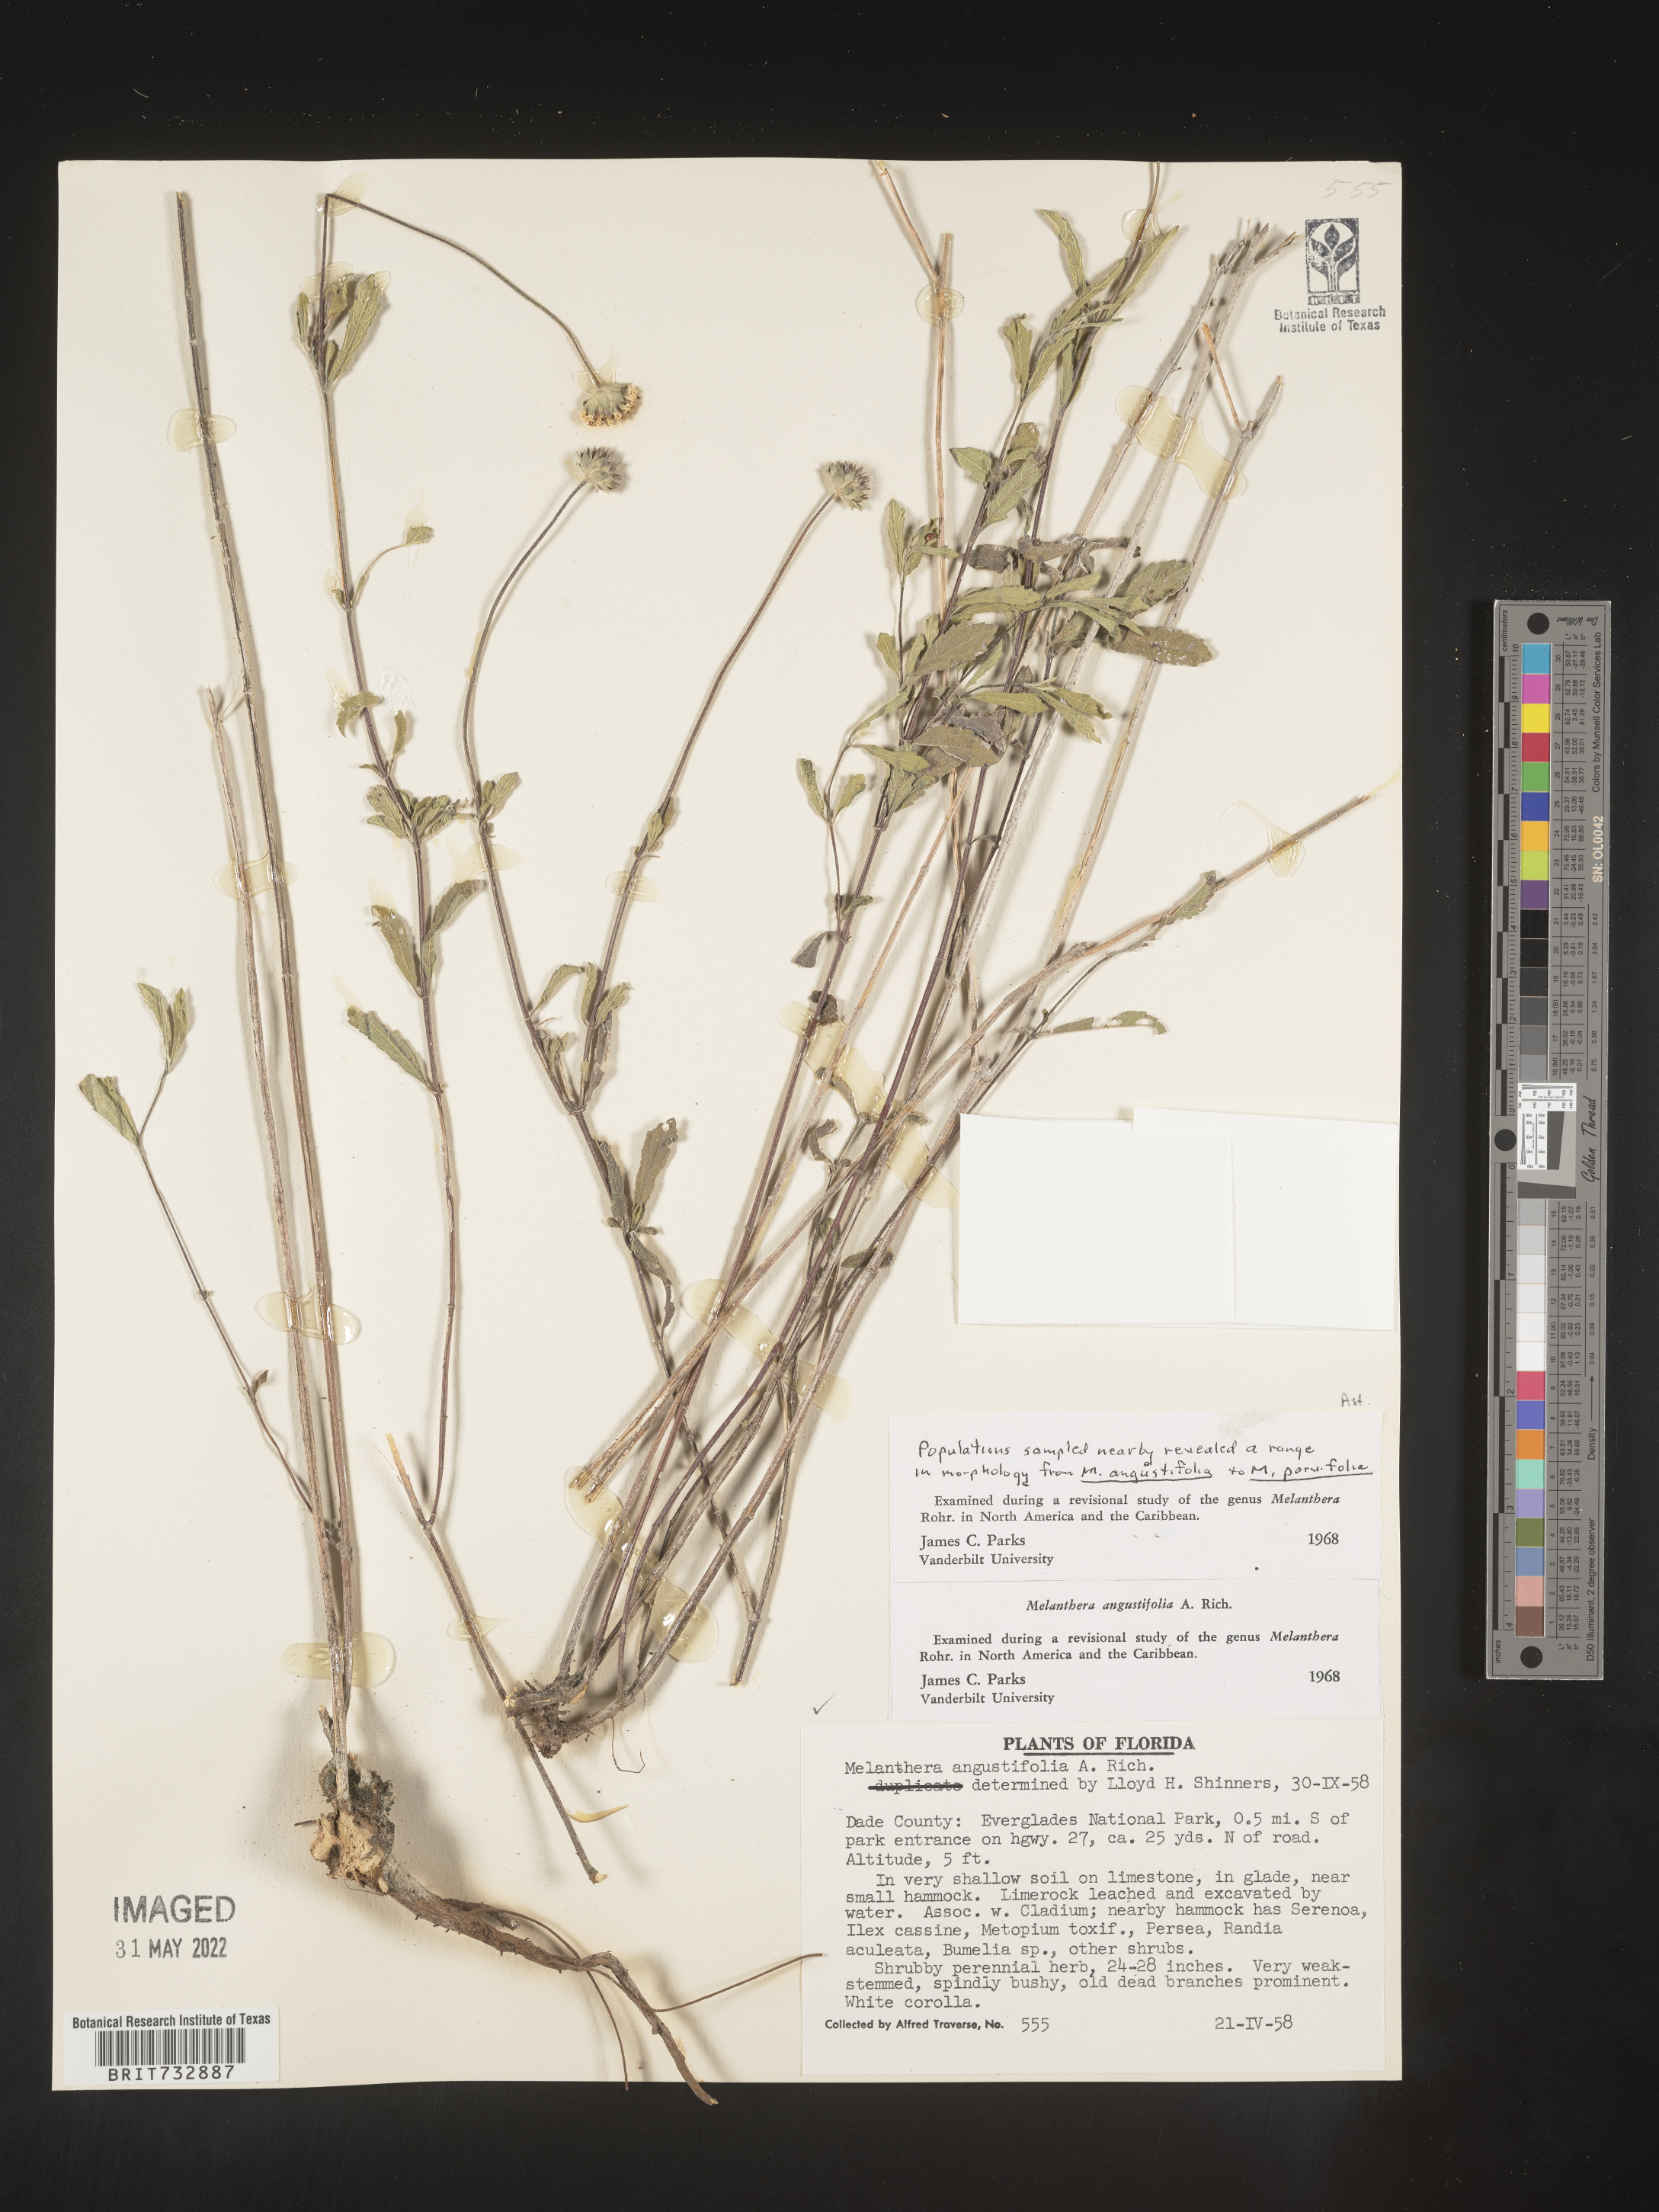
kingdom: Plantae
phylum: Tracheophyta
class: Magnoliopsida
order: Asterales
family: Asteraceae
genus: Melanthera
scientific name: Melanthera nivea
